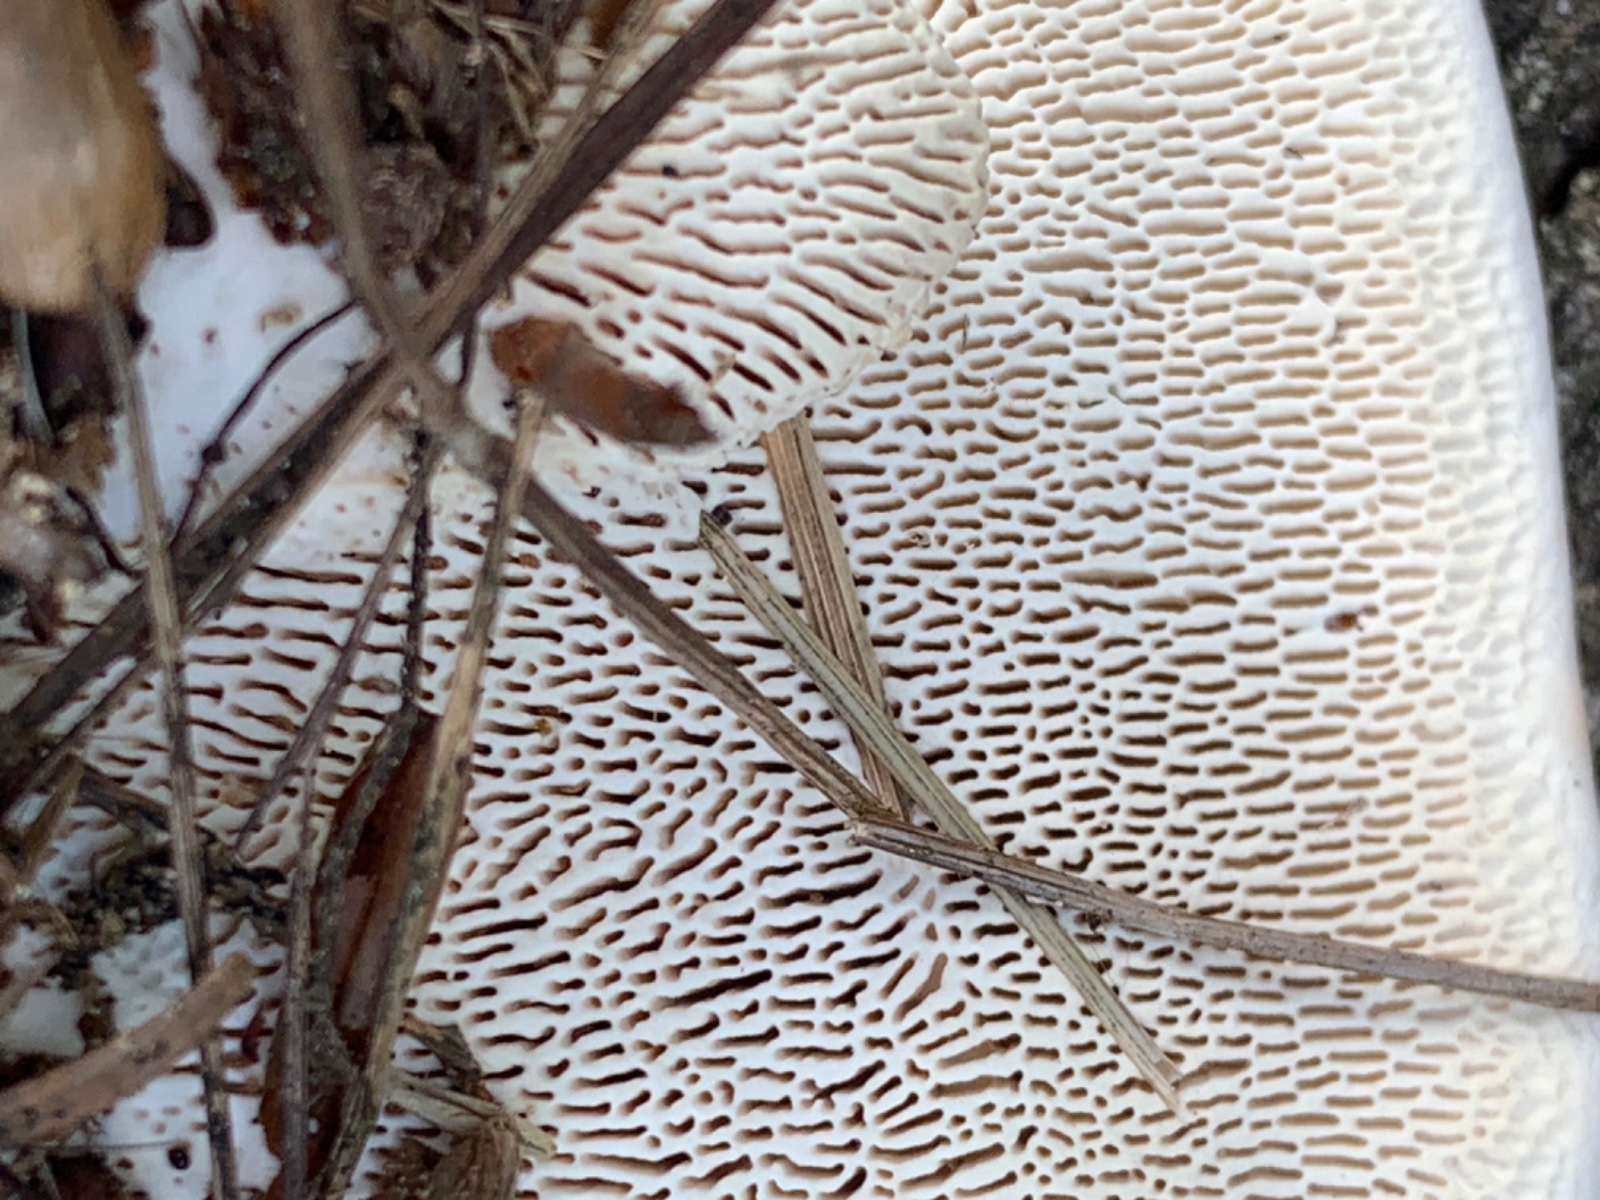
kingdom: Fungi
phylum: Basidiomycota
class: Agaricomycetes
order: Polyporales
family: Polyporaceae
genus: Trametes
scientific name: Trametes gibbosa
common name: puklet læderporesvamp
